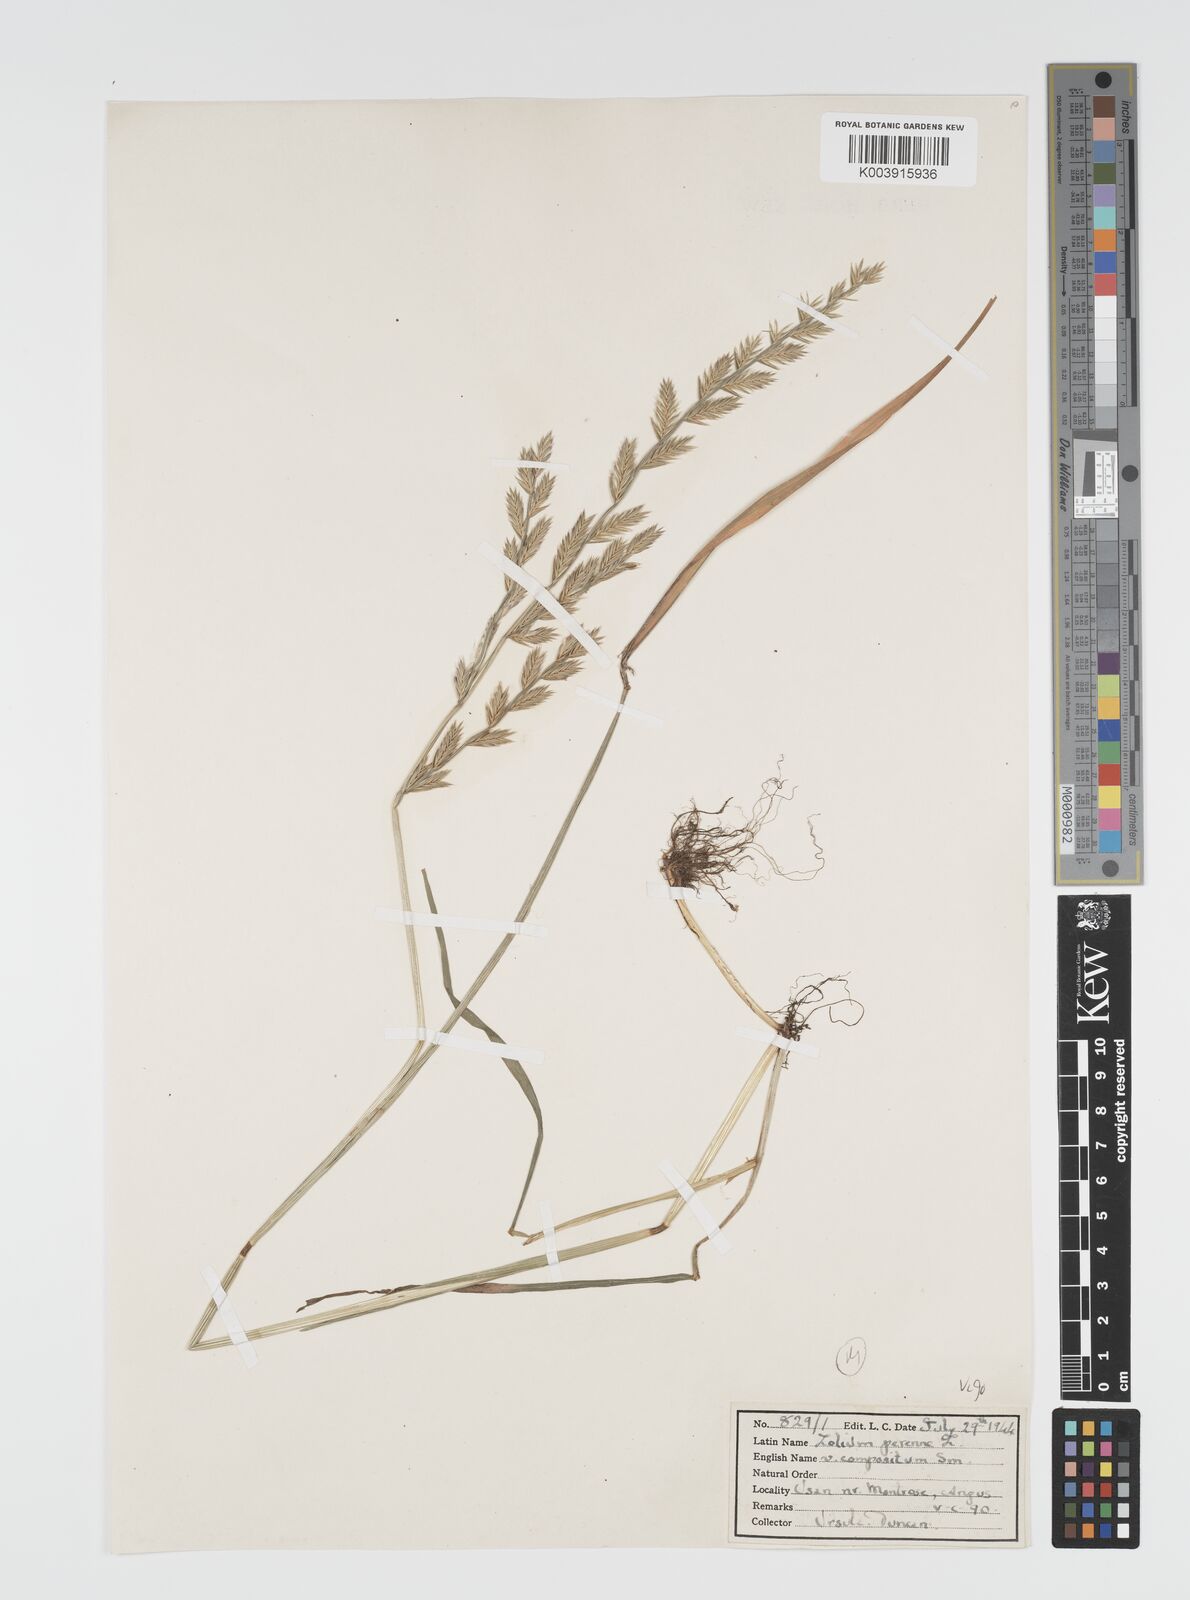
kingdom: Plantae
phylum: Tracheophyta
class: Liliopsida
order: Poales
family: Poaceae
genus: Lolium
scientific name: Lolium multiflorum
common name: Annual ryegrass
